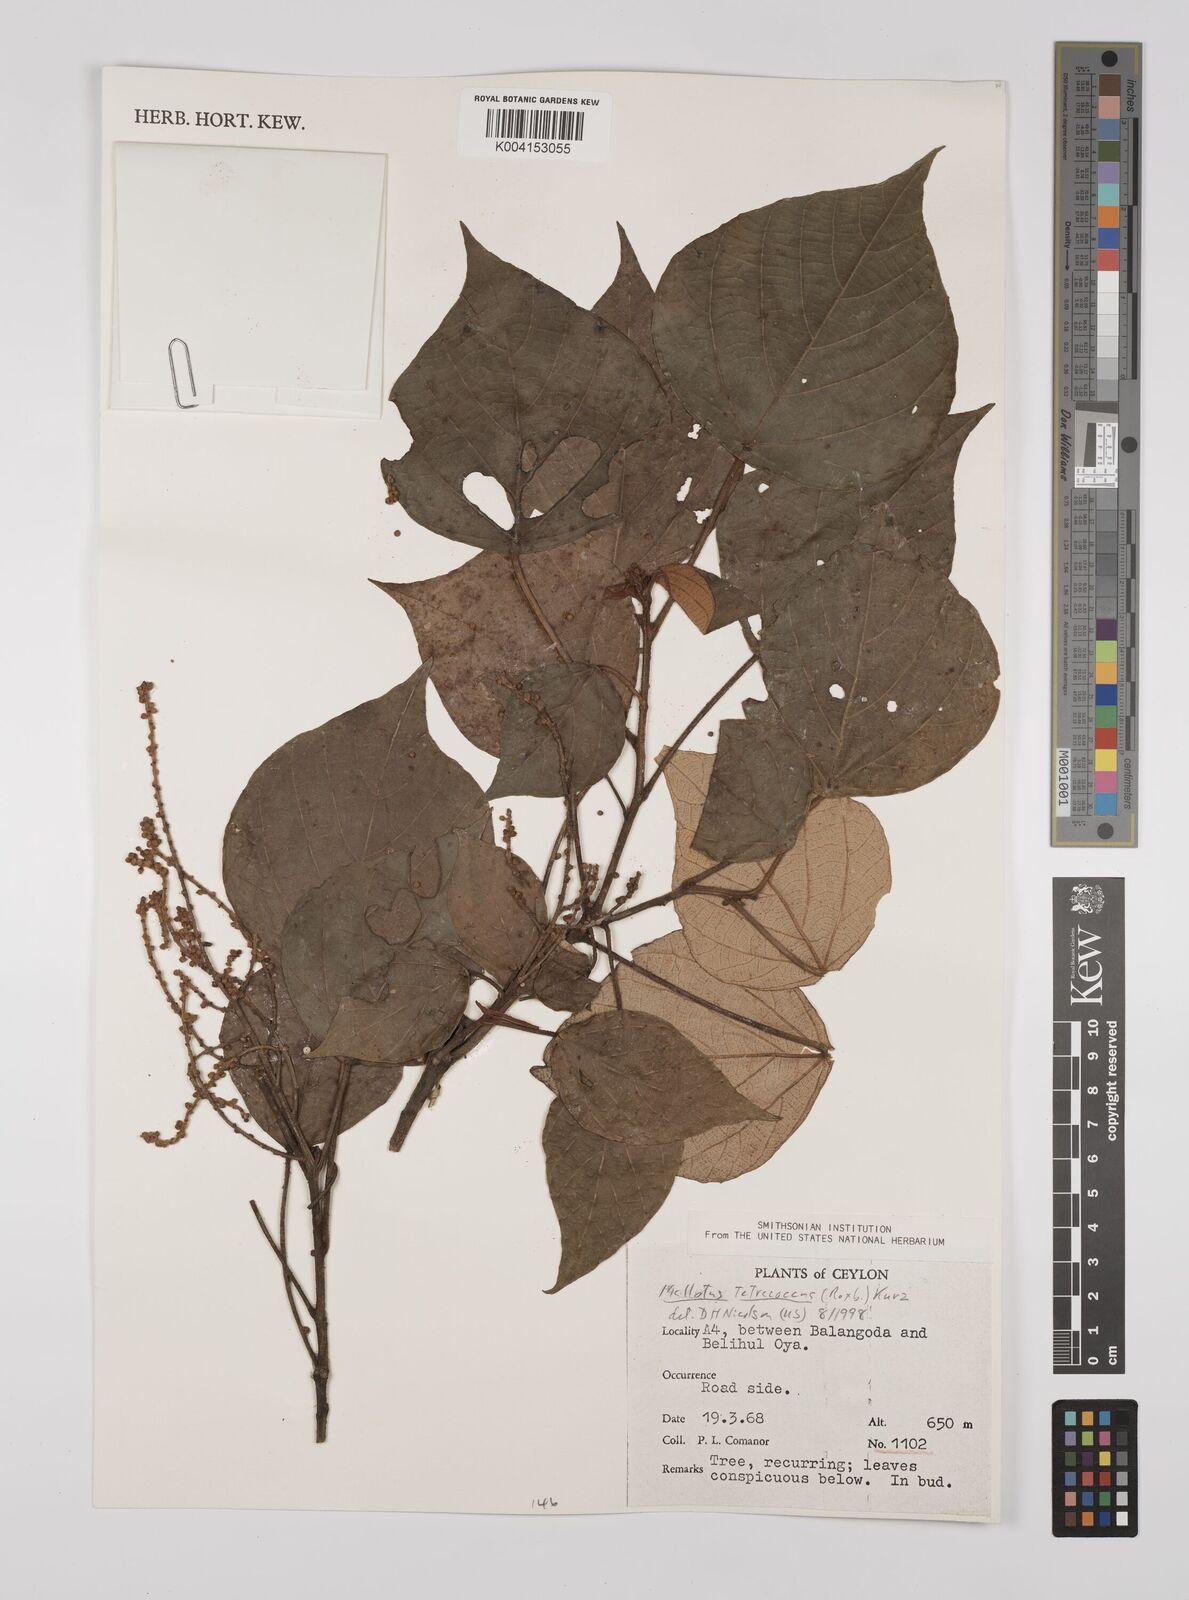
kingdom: Plantae
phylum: Tracheophyta
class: Magnoliopsida
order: Malpighiales
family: Euphorbiaceae
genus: Mallotus
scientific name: Mallotus tetracoccus
